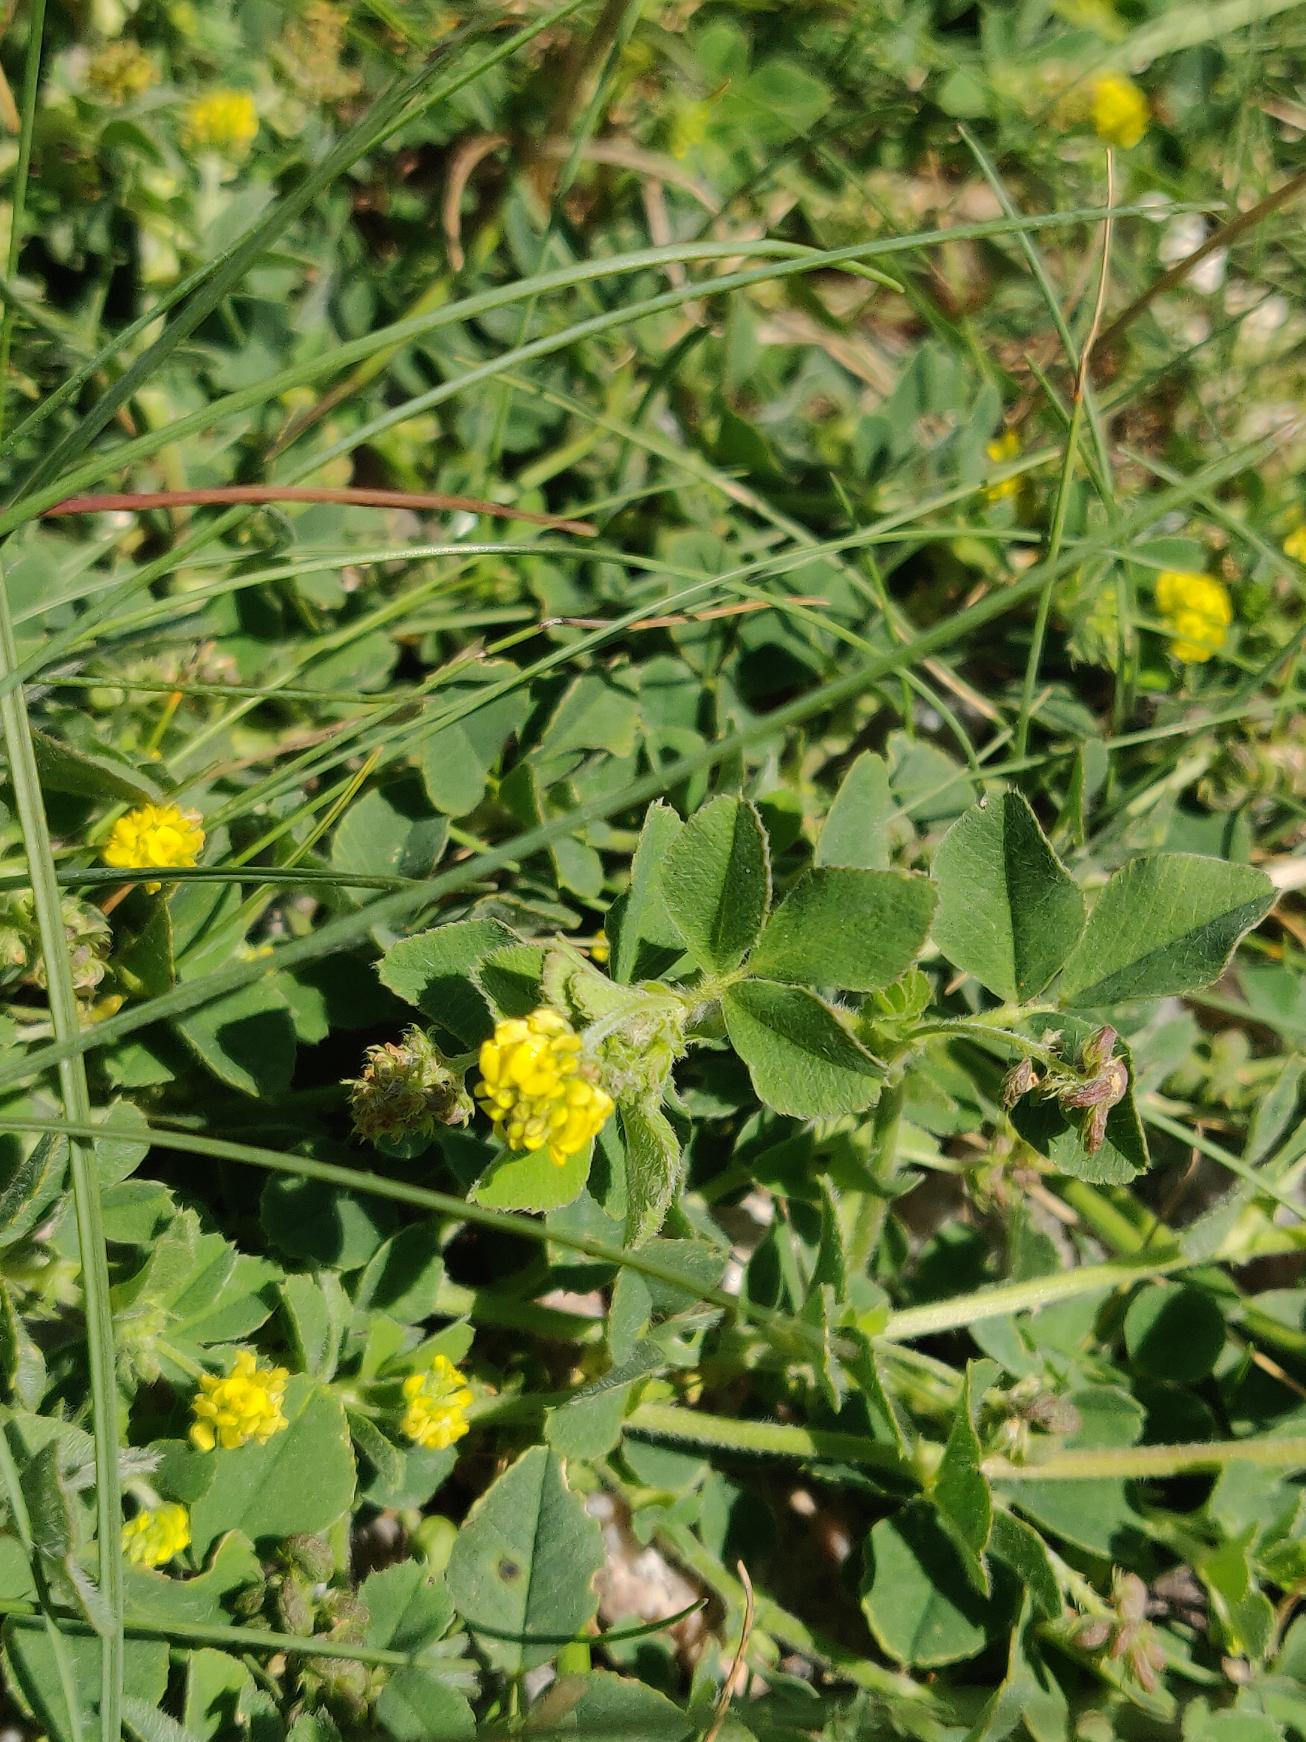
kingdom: Plantae
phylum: Tracheophyta
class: Magnoliopsida
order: Fabales
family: Fabaceae
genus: Medicago
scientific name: Medicago lupulina
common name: Humle-sneglebælg
